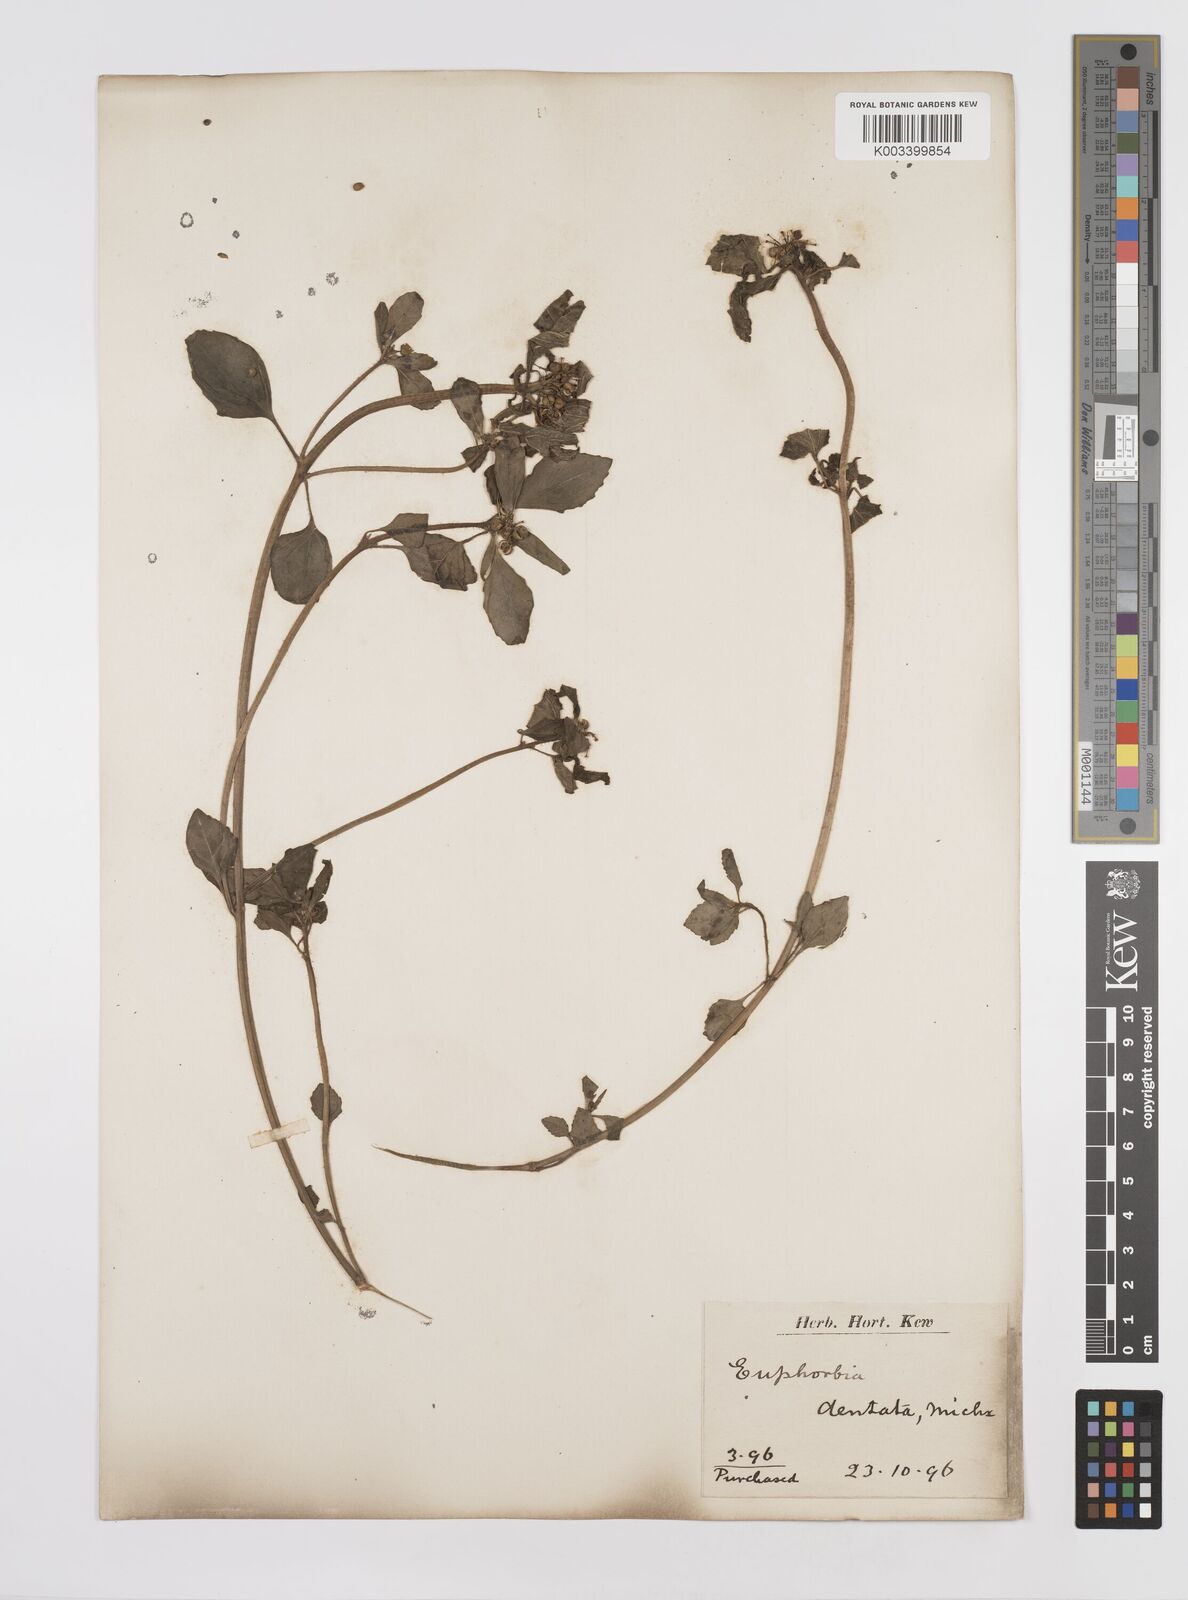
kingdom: Plantae
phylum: Tracheophyta
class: Magnoliopsida
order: Malpighiales
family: Euphorbiaceae
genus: Euphorbia
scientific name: Euphorbia dentata
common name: Dentate spurge
